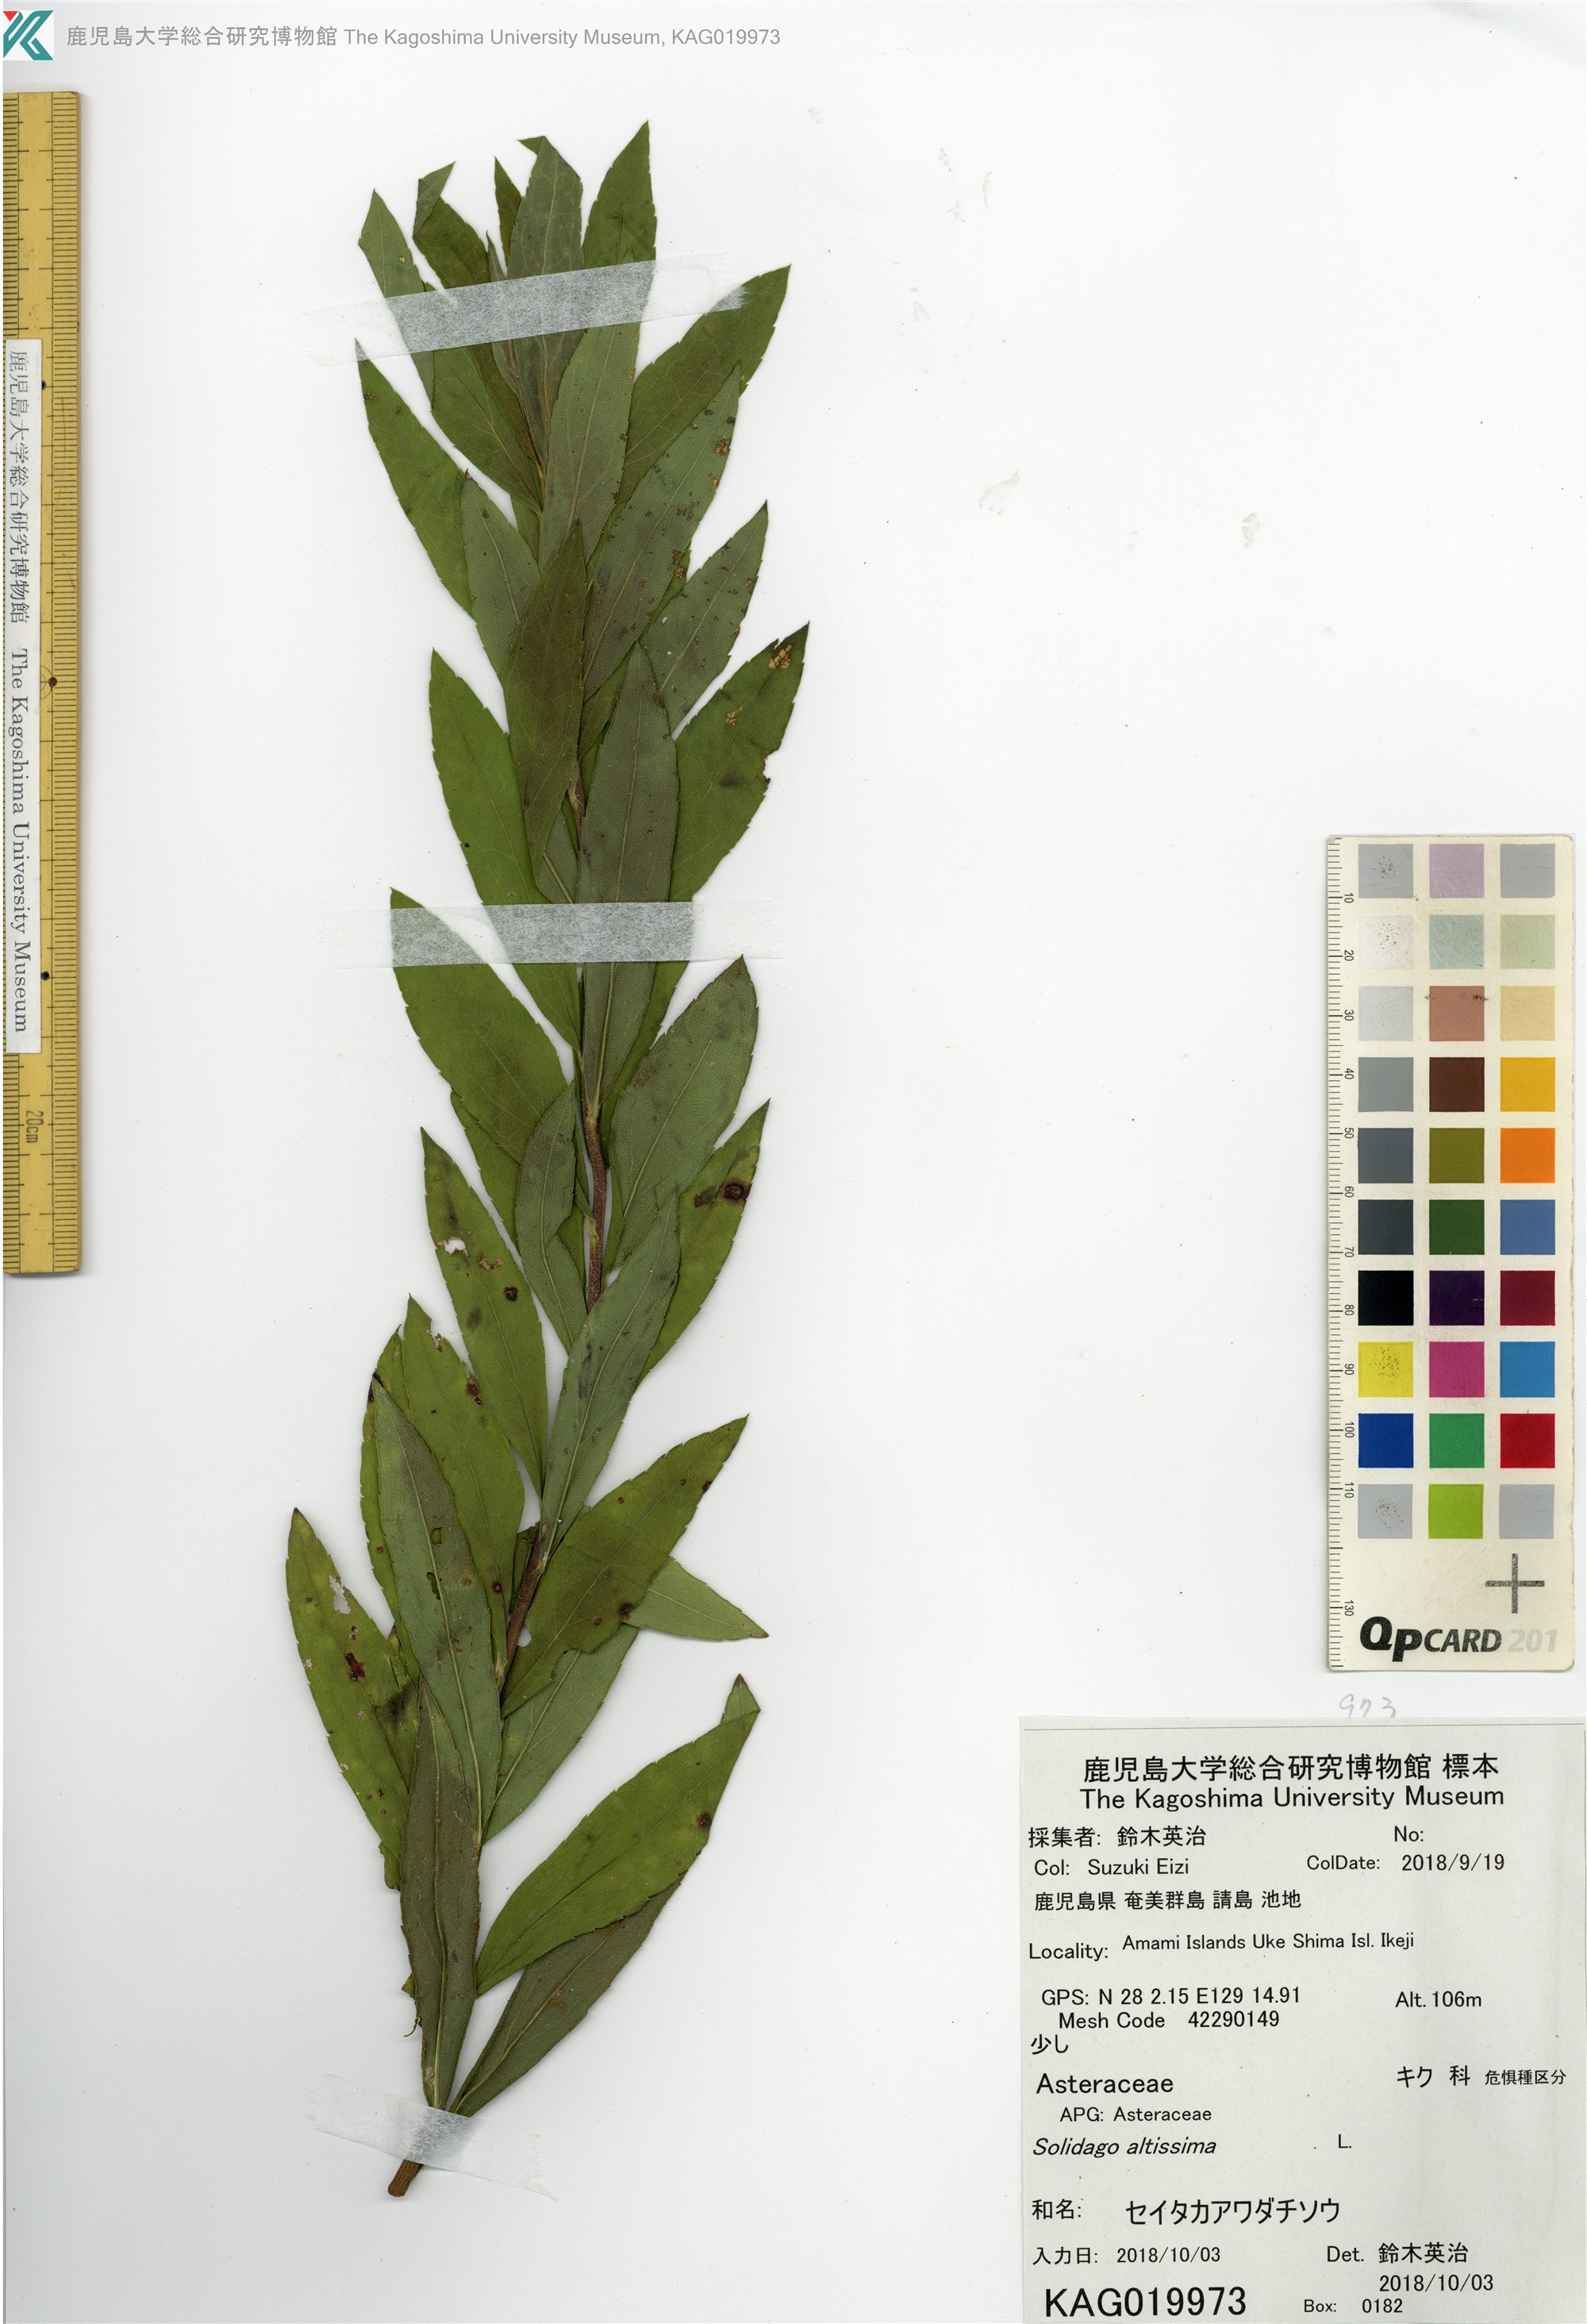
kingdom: Plantae
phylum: Tracheophyta
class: Magnoliopsida
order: Asterales
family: Asteraceae
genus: Solidago
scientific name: Solidago altissima
